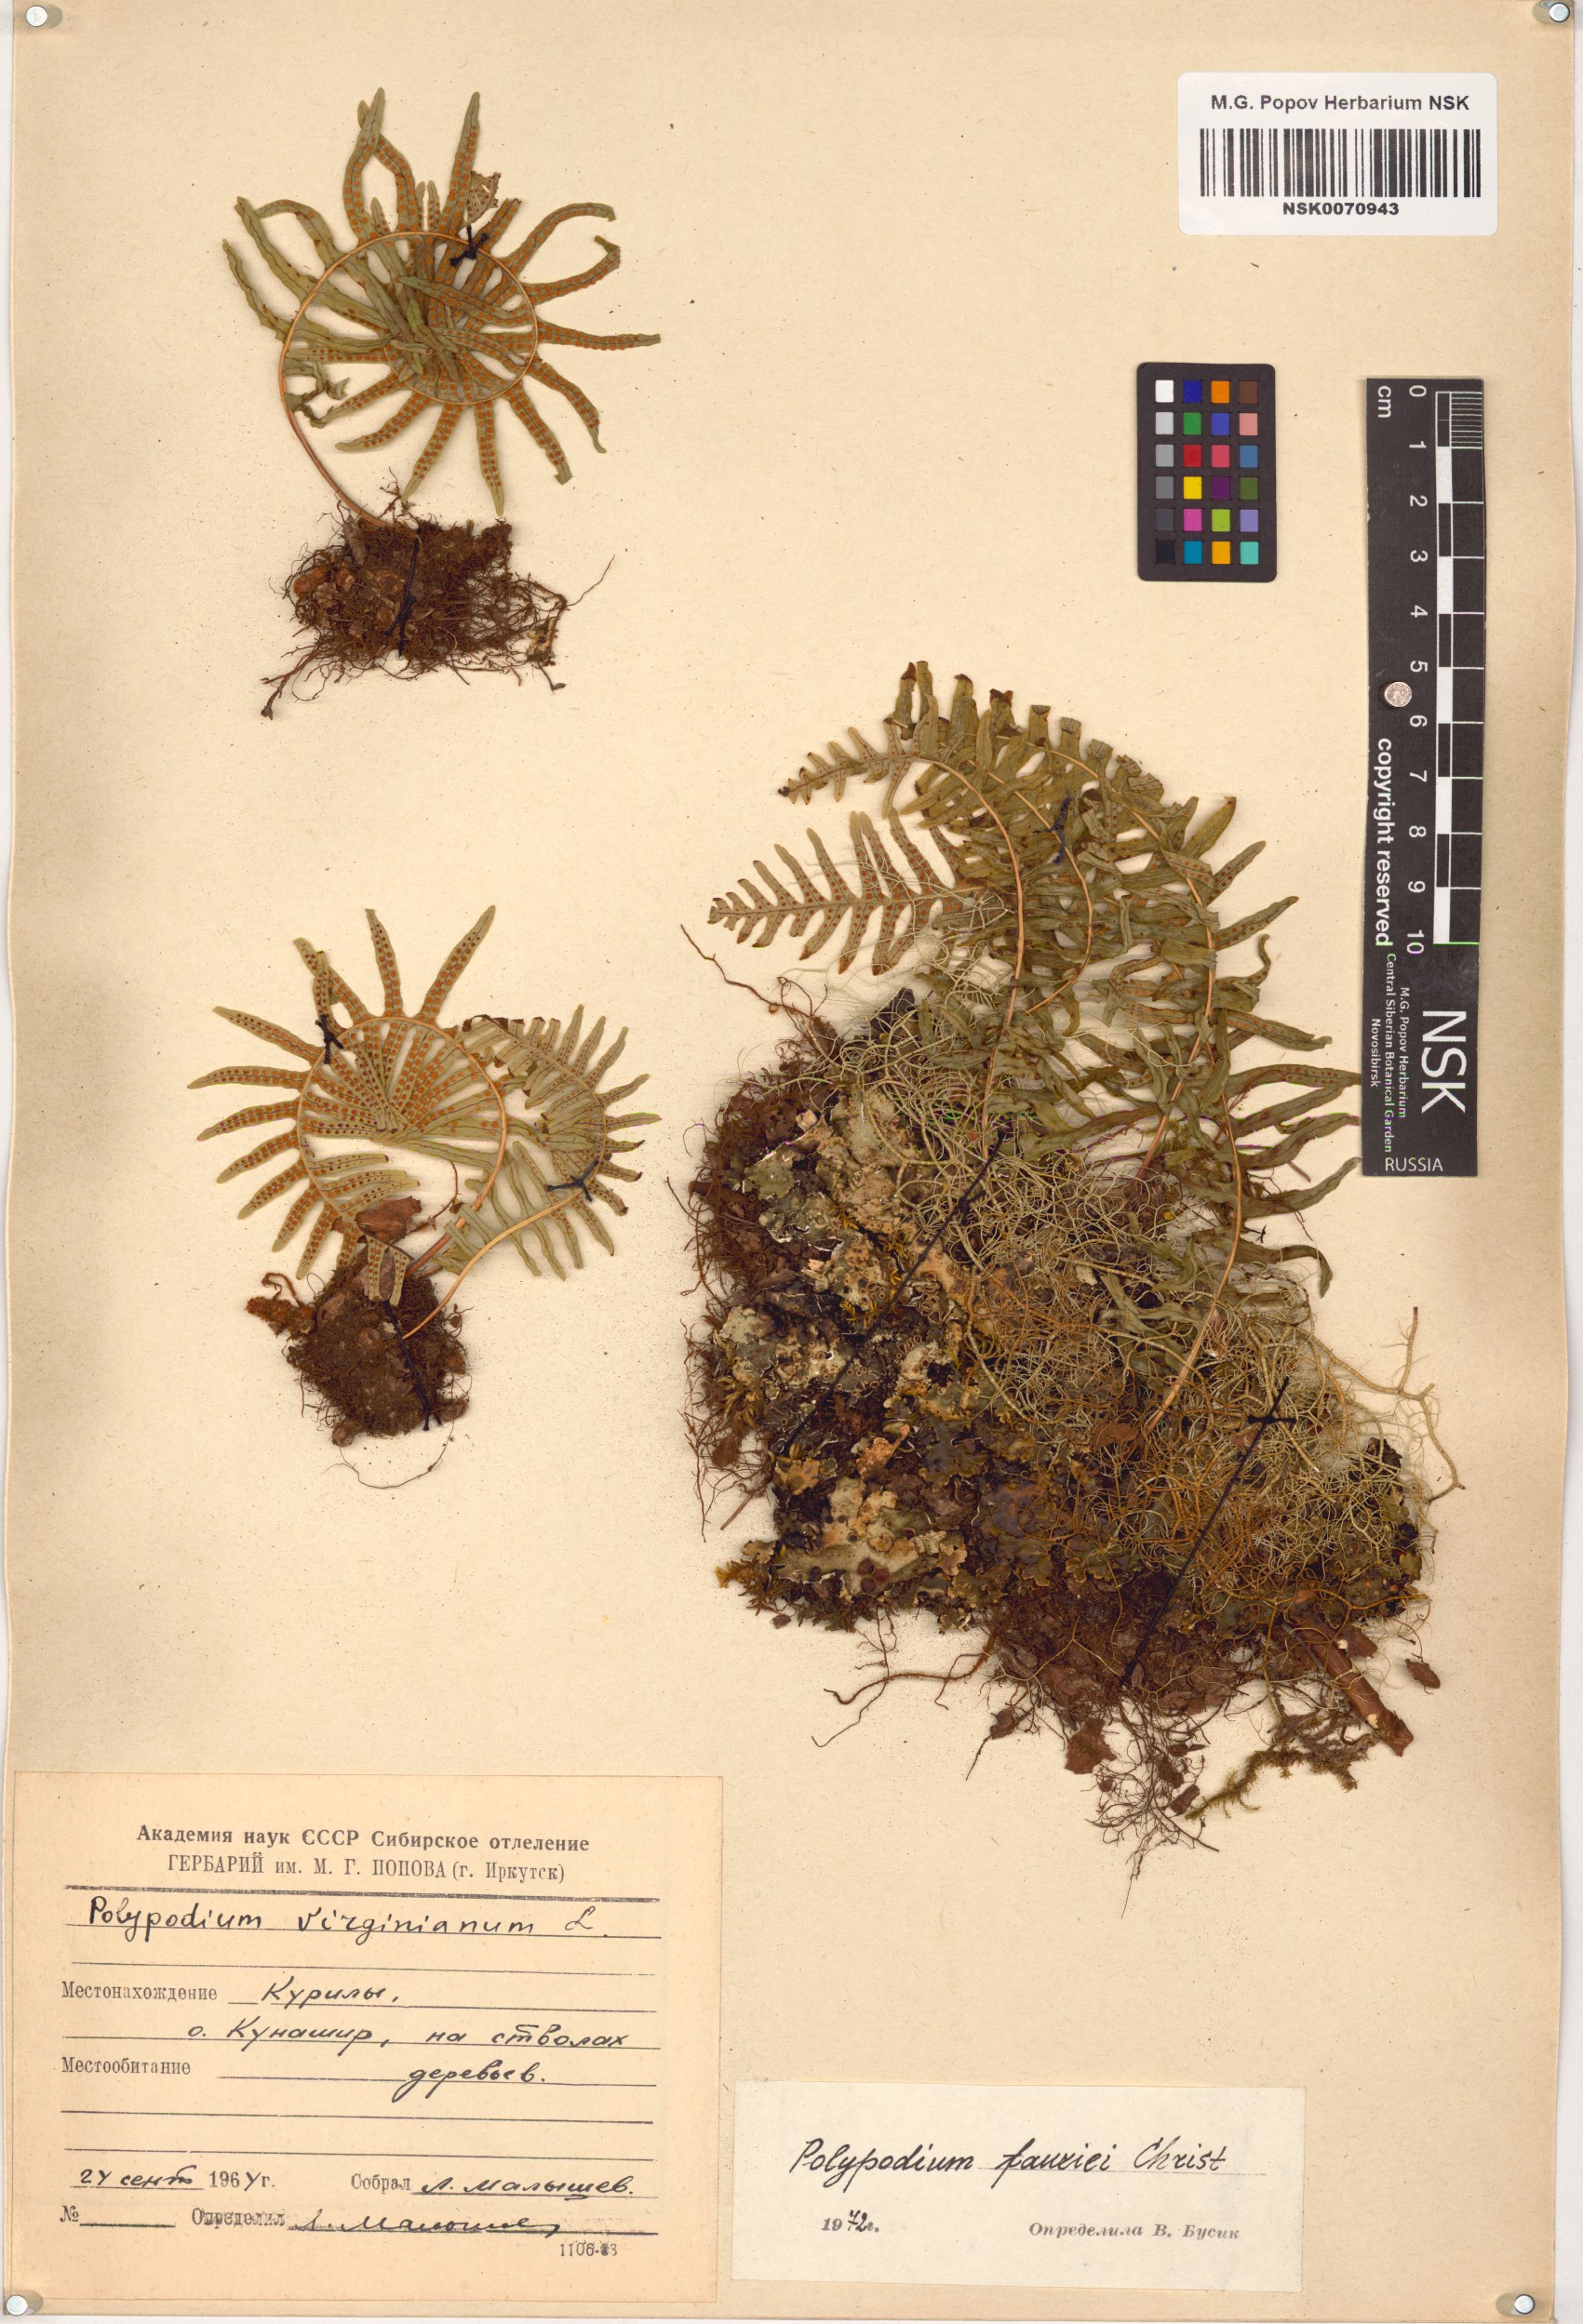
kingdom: Plantae
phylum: Tracheophyta
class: Polypodiopsida
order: Polypodiales
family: Polypodiaceae
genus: Polypodium
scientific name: Polypodium fauriei
